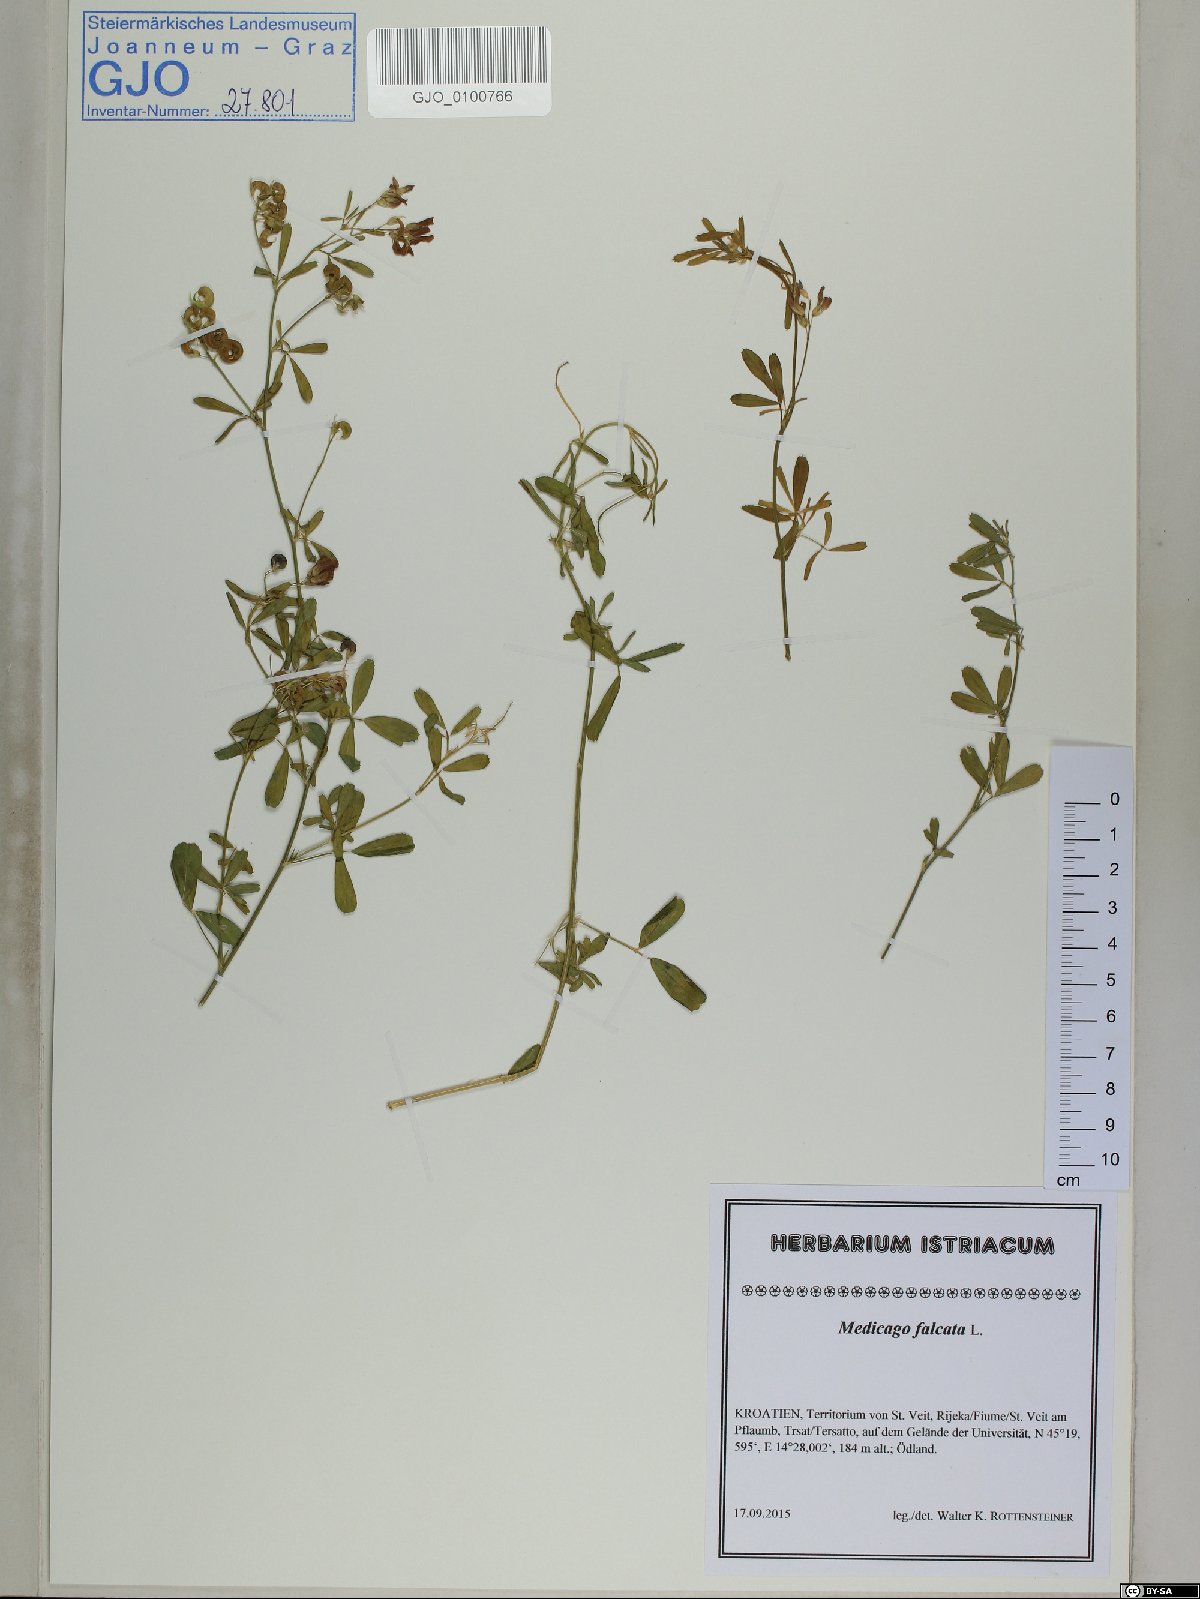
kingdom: Plantae
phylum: Tracheophyta
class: Magnoliopsida
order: Fabales
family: Fabaceae
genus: Medicago
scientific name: Medicago falcata
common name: Sickle medick
